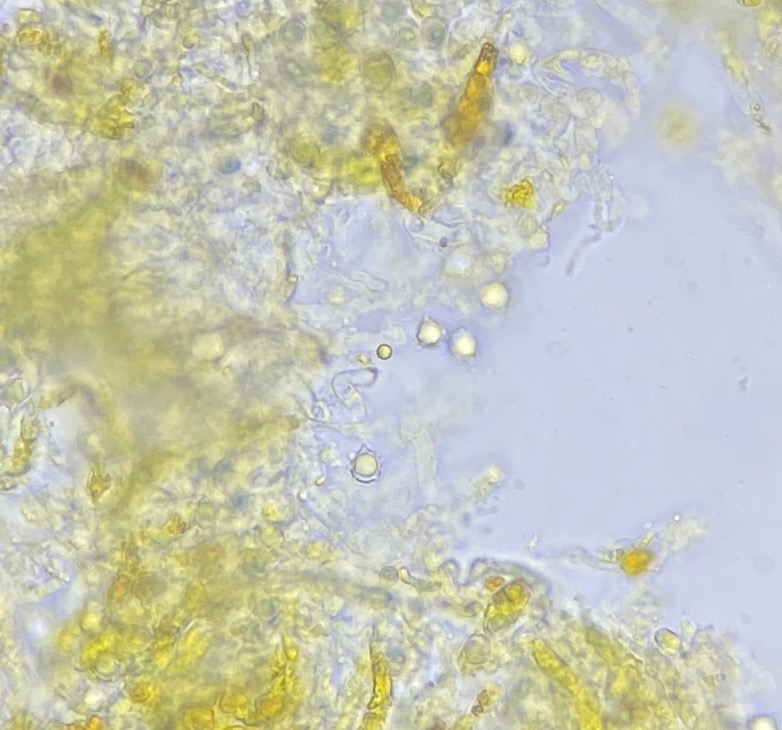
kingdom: Fungi
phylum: Basidiomycota
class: Agaricomycetes
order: Agaricales
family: Clavariaceae
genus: Clavulinopsis
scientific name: Clavulinopsis helvola
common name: orangegul køllesvamp
